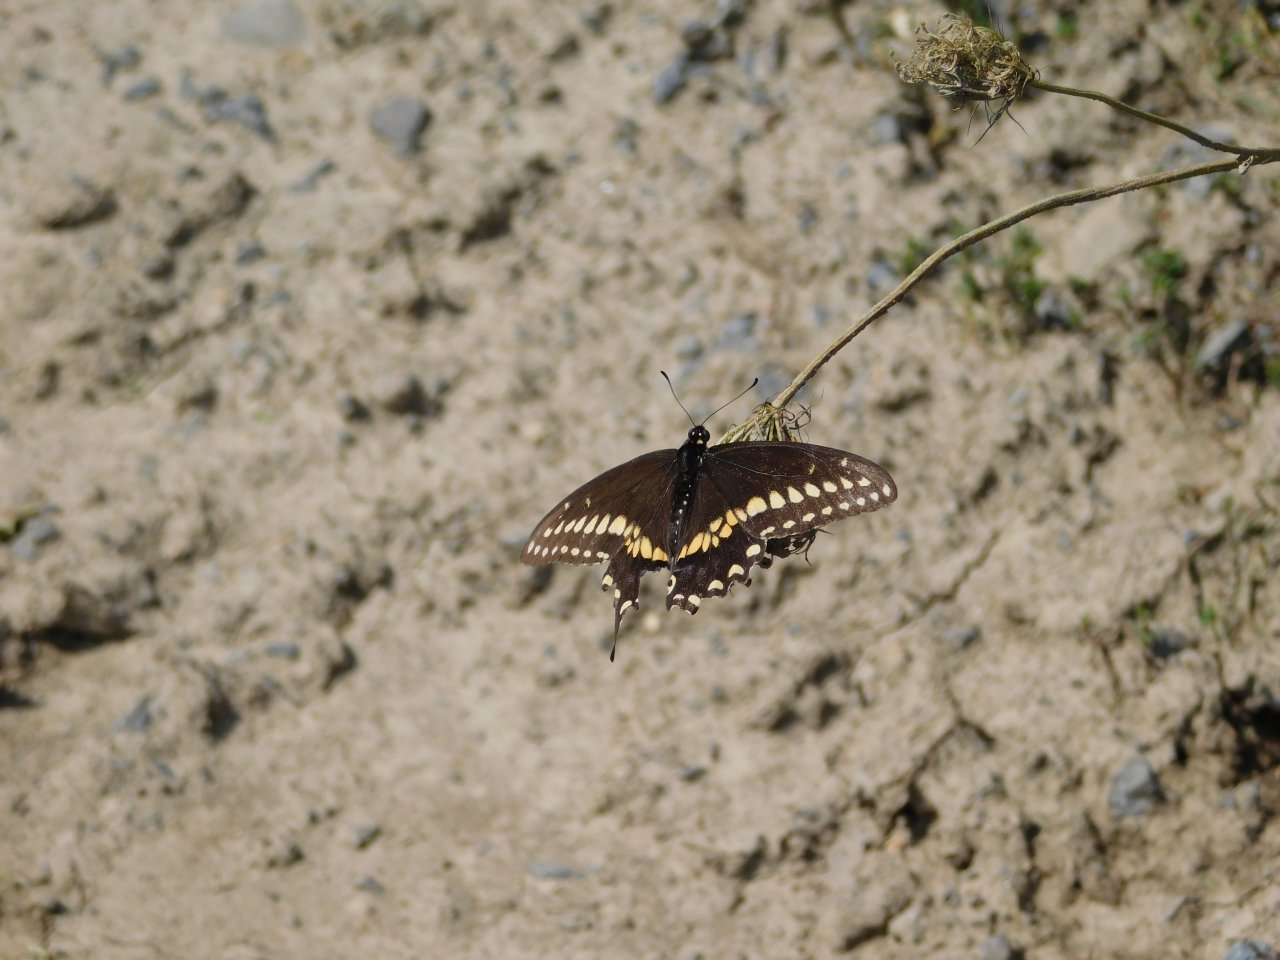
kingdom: Animalia
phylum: Arthropoda
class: Insecta
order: Lepidoptera
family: Papilionidae
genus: Papilio
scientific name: Papilio polyxenes
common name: Black Swallowtail
